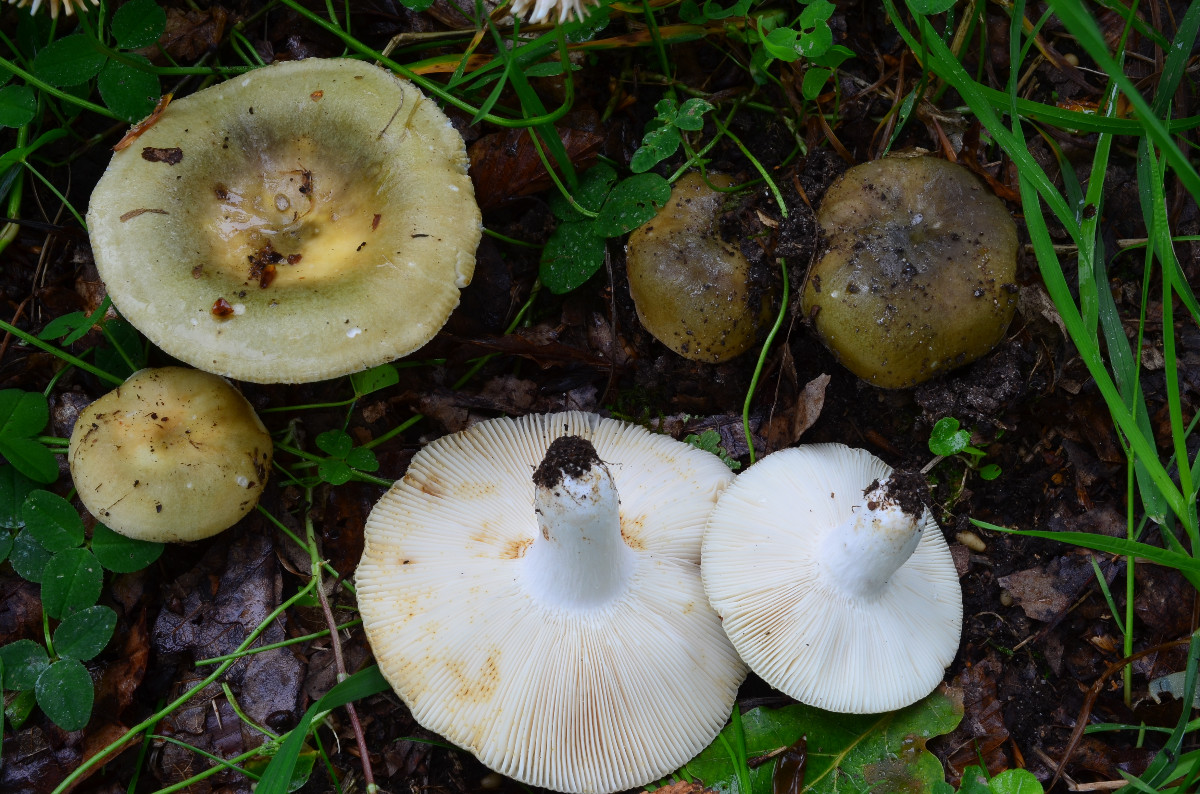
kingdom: Fungi
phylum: Basidiomycota
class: Agaricomycetes
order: Russulales
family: Russulaceae
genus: Russula
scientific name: Russula heterophylla
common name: gaffelbladet skørhat
